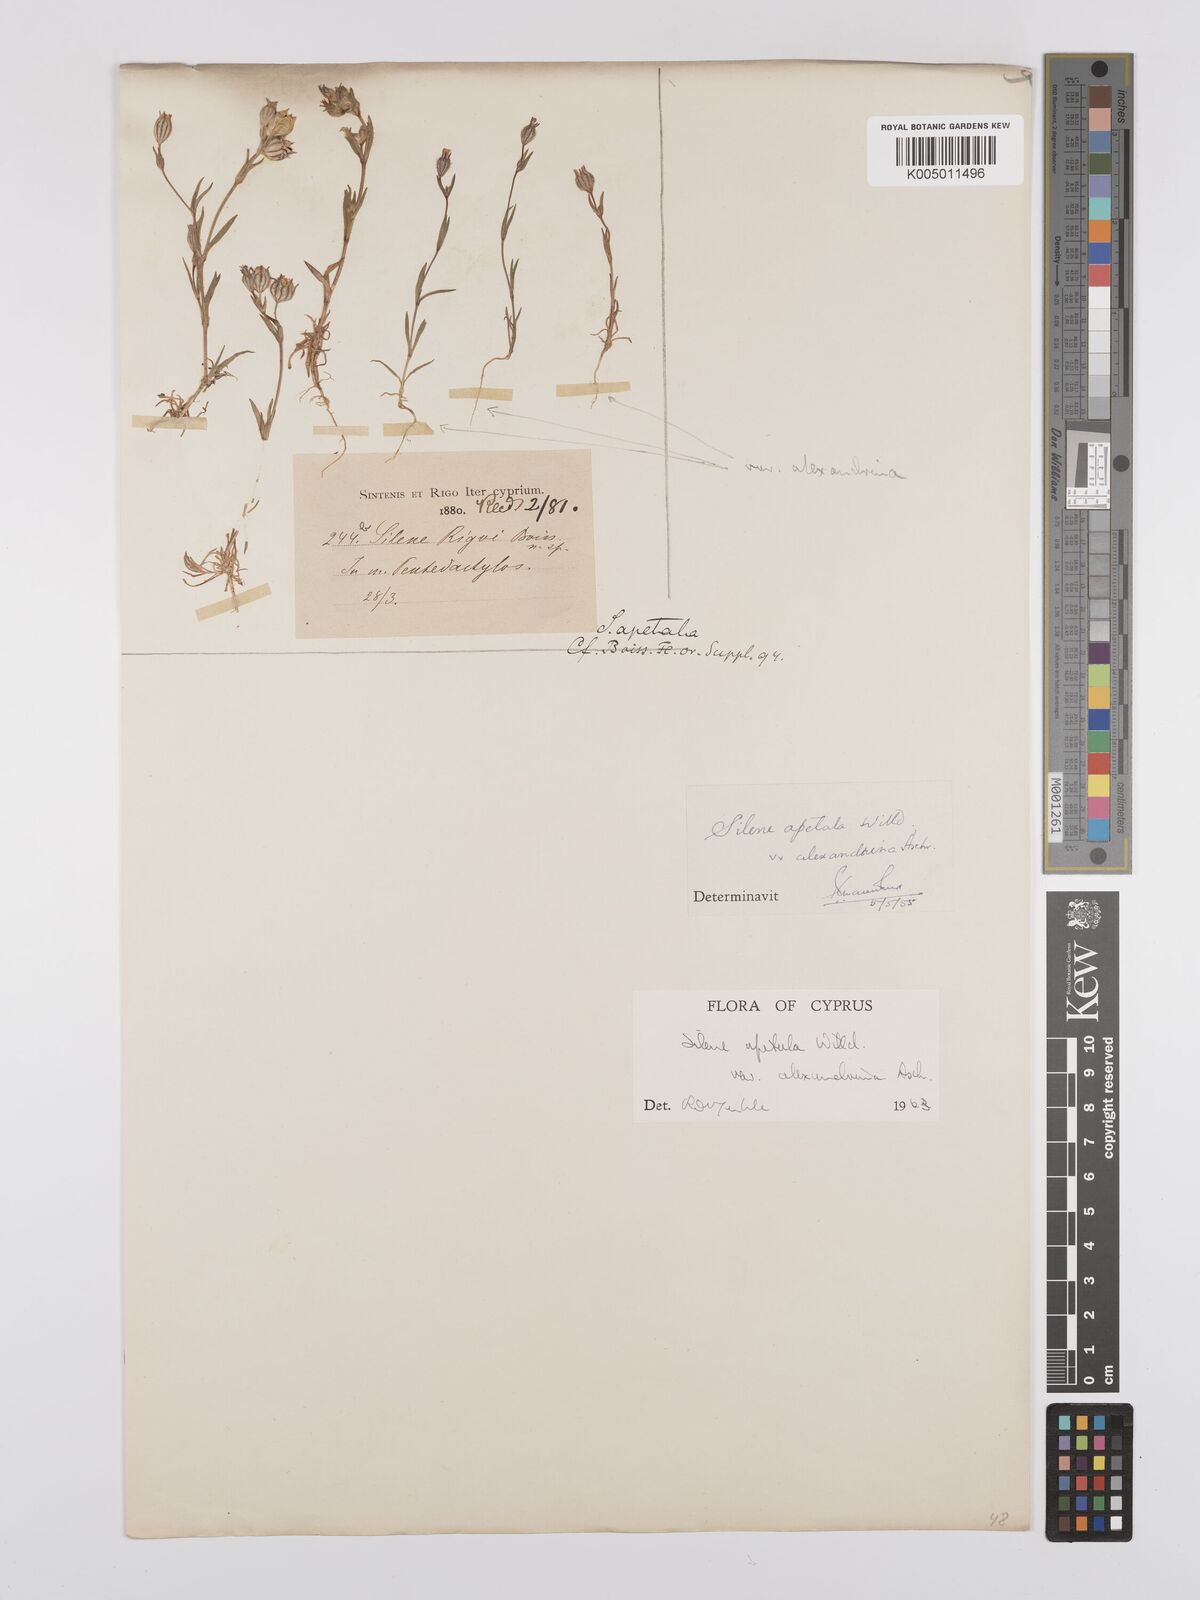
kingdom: Plantae
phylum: Tracheophyta
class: Magnoliopsida
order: Caryophyllales
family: Caryophyllaceae
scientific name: Caryophyllaceae
